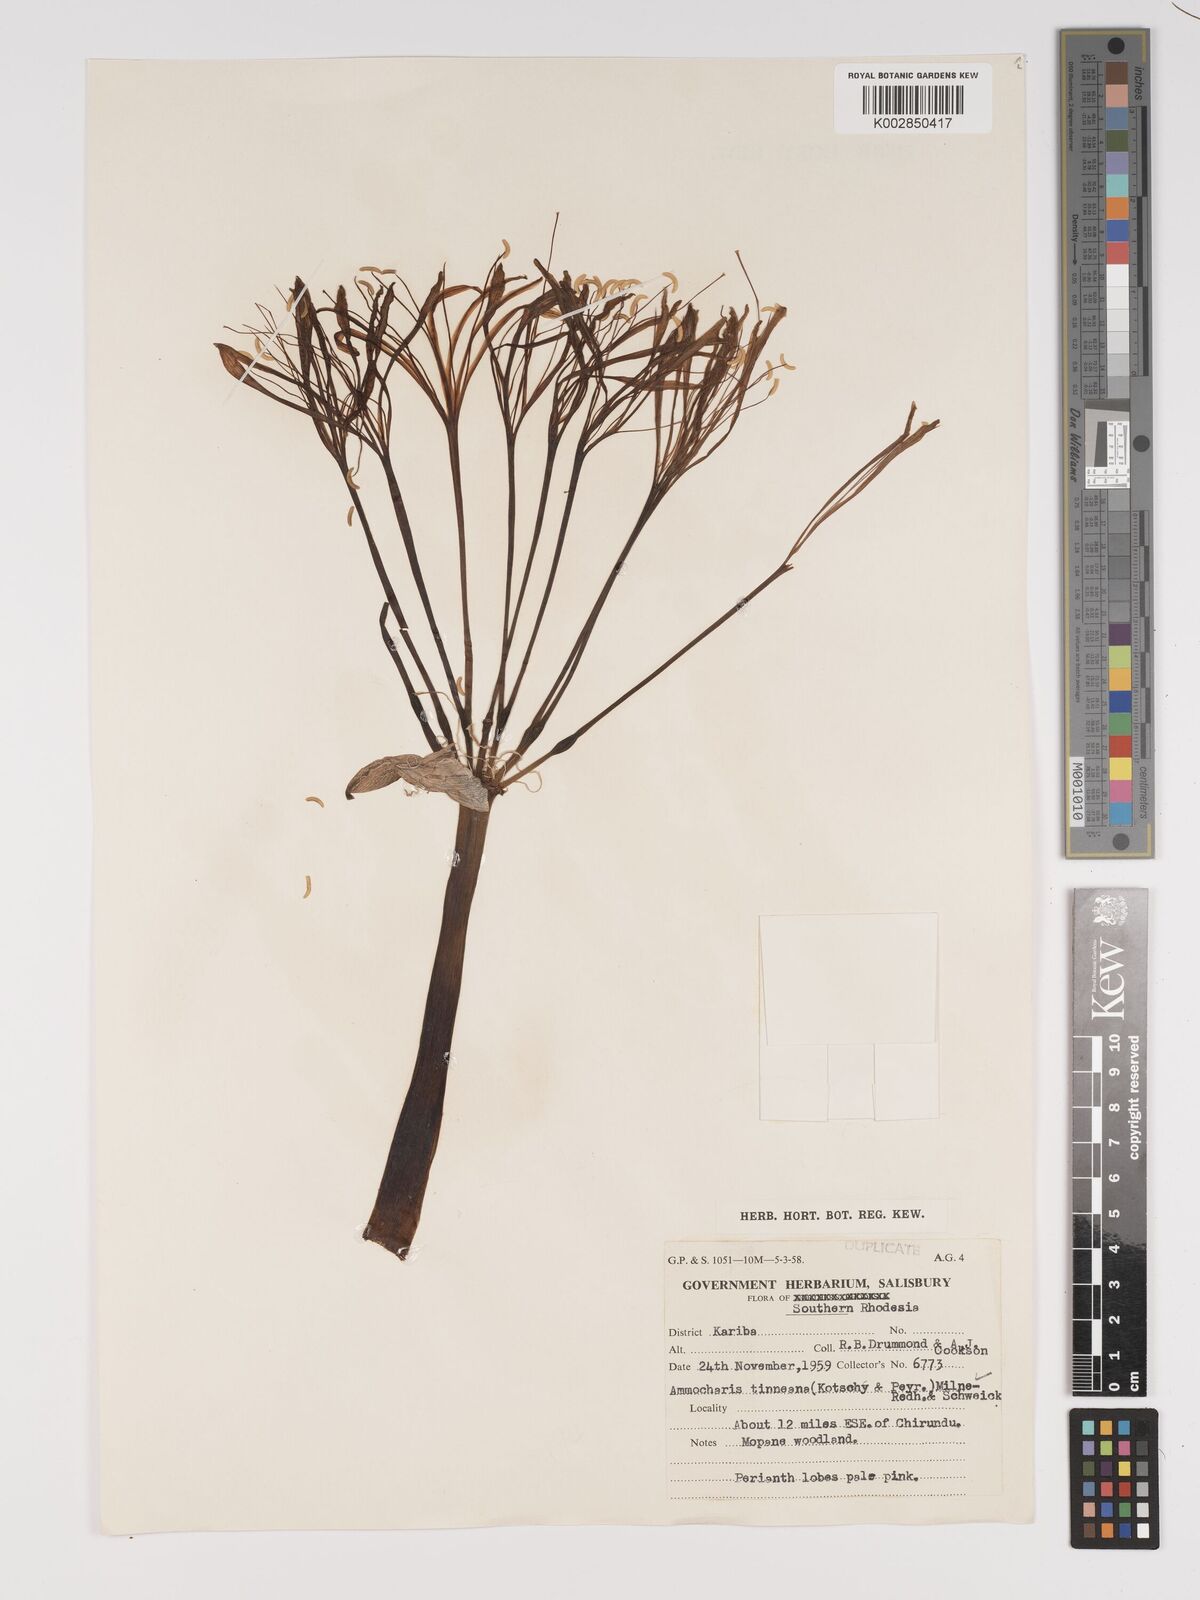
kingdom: Plantae
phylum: Tracheophyta
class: Liliopsida
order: Asparagales
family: Amaryllidaceae
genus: Ammocharis
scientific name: Ammocharis tinneana
